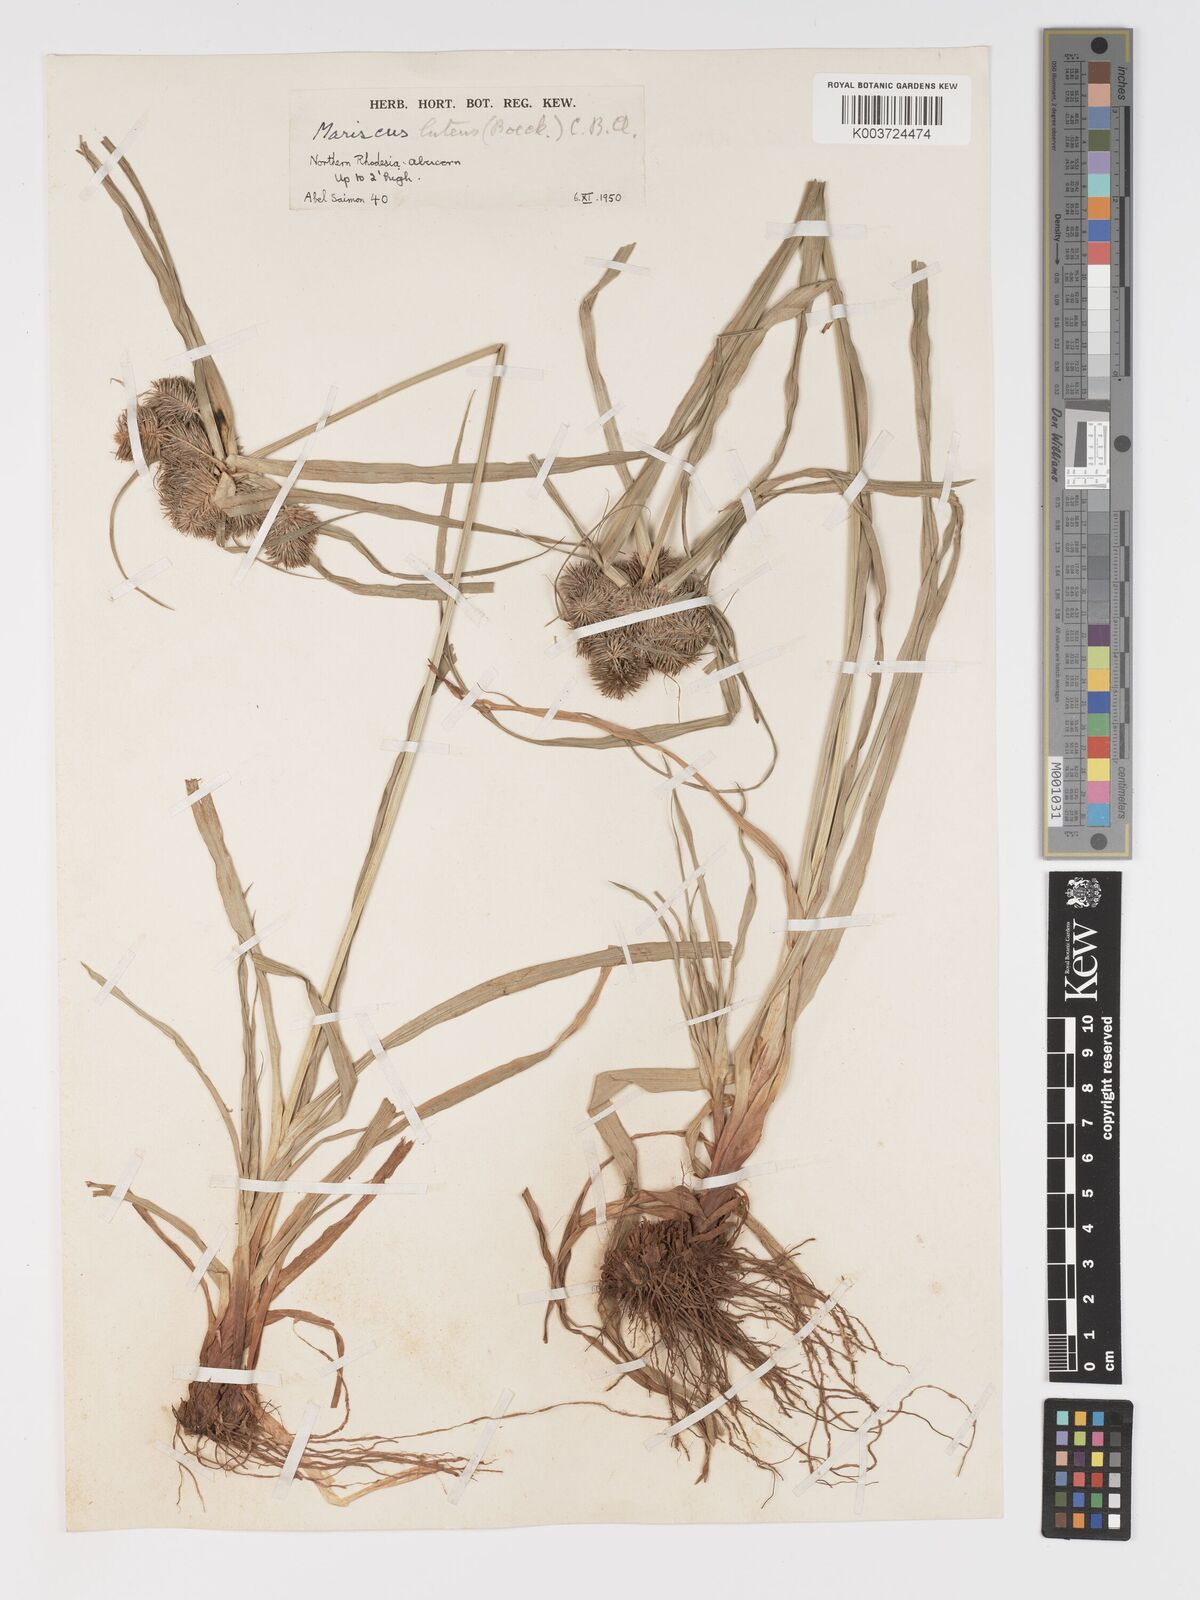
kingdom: Plantae
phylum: Tracheophyta
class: Liliopsida
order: Poales
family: Cyperaceae
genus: Cyperus
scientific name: Cyperus luteus
